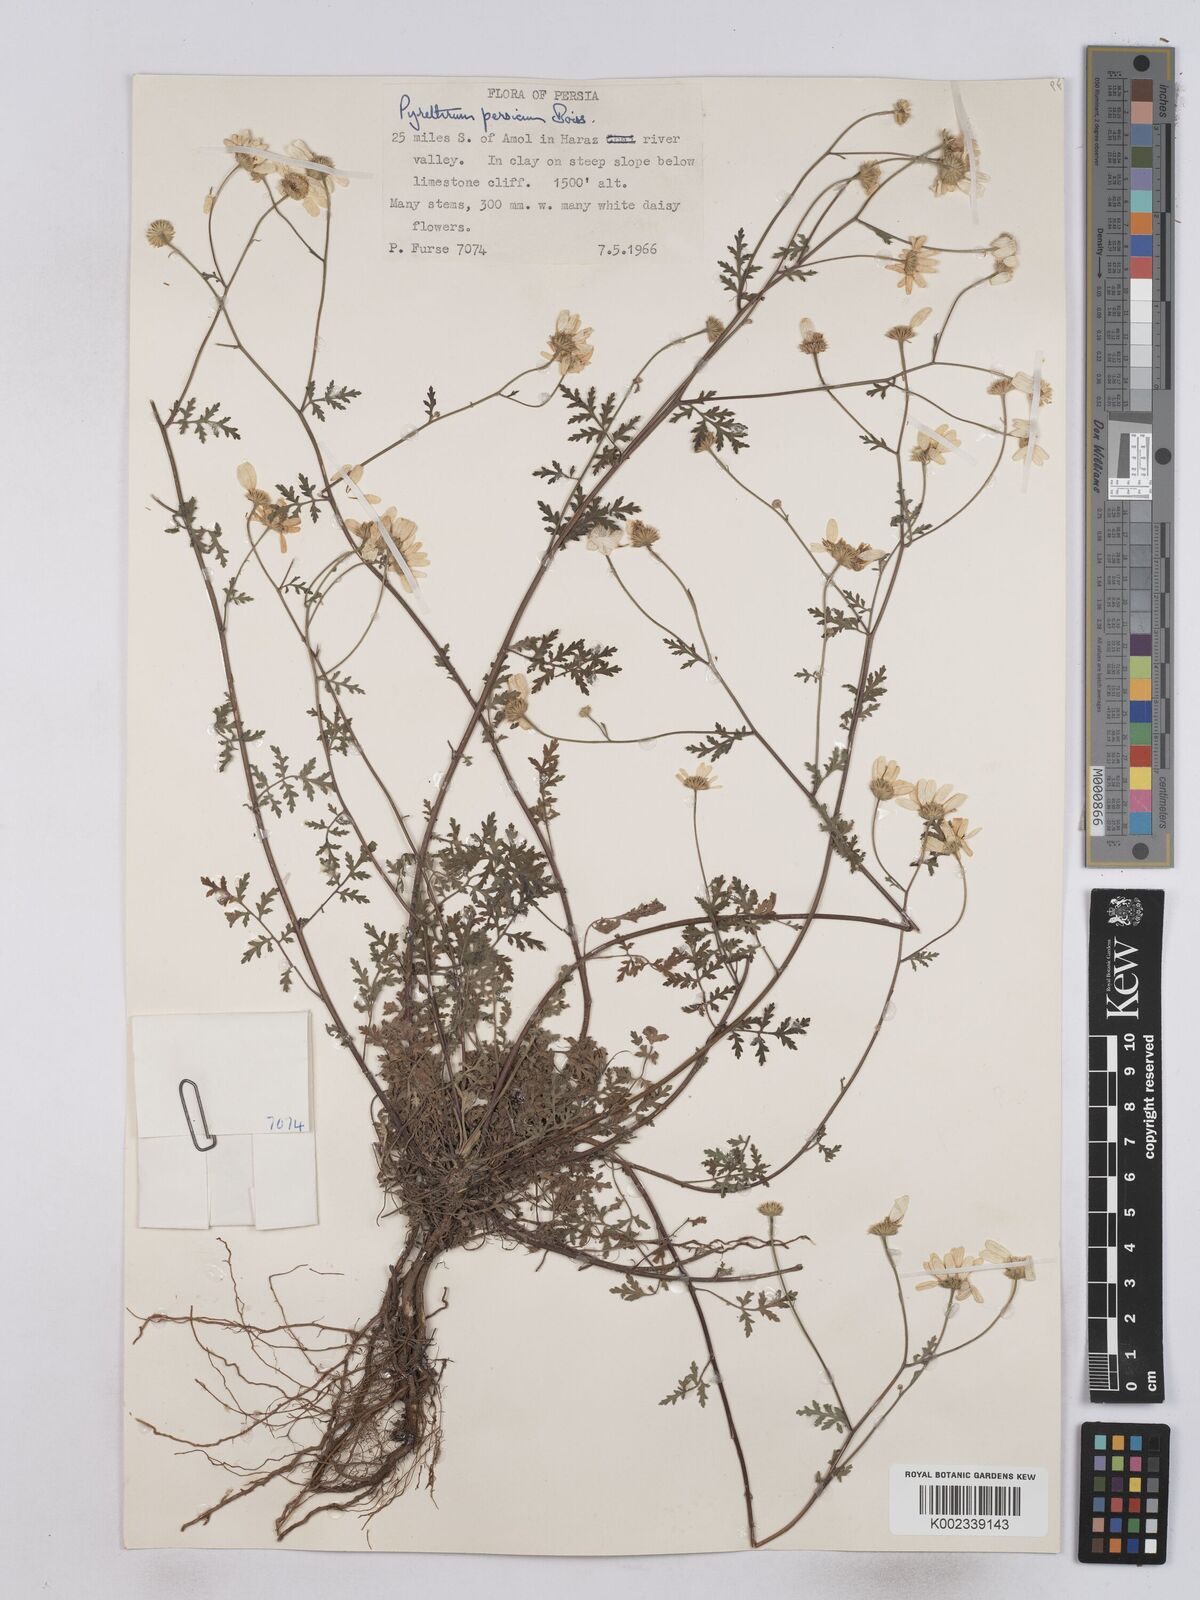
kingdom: Plantae
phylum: Tracheophyta
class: Magnoliopsida
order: Asterales
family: Asteraceae
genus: Tanacetum
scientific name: Tanacetum partheniifolium
